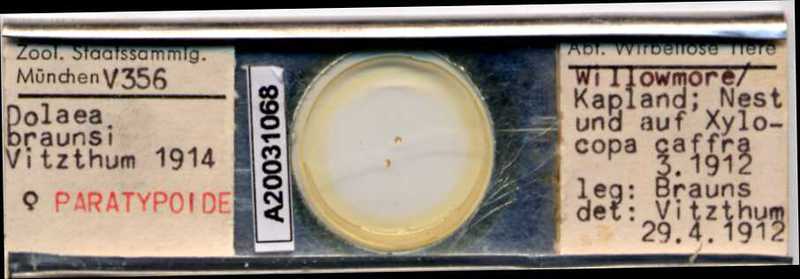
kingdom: Animalia
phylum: Arthropoda
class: Arachnida
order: Mesostigmata
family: Laelapidae
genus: Dinogamasus
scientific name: Dinogamasus
